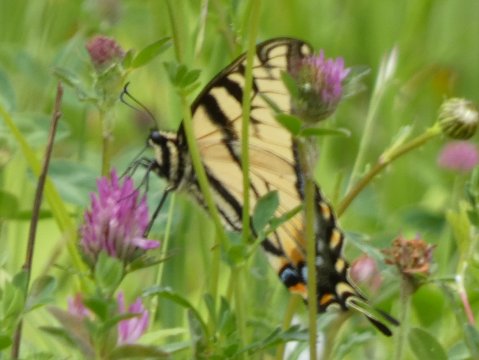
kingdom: Animalia
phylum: Arthropoda
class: Insecta
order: Lepidoptera
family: Papilionidae
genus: Pterourus
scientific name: Pterourus canadensis
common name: Canadian Tiger Swallowtail
